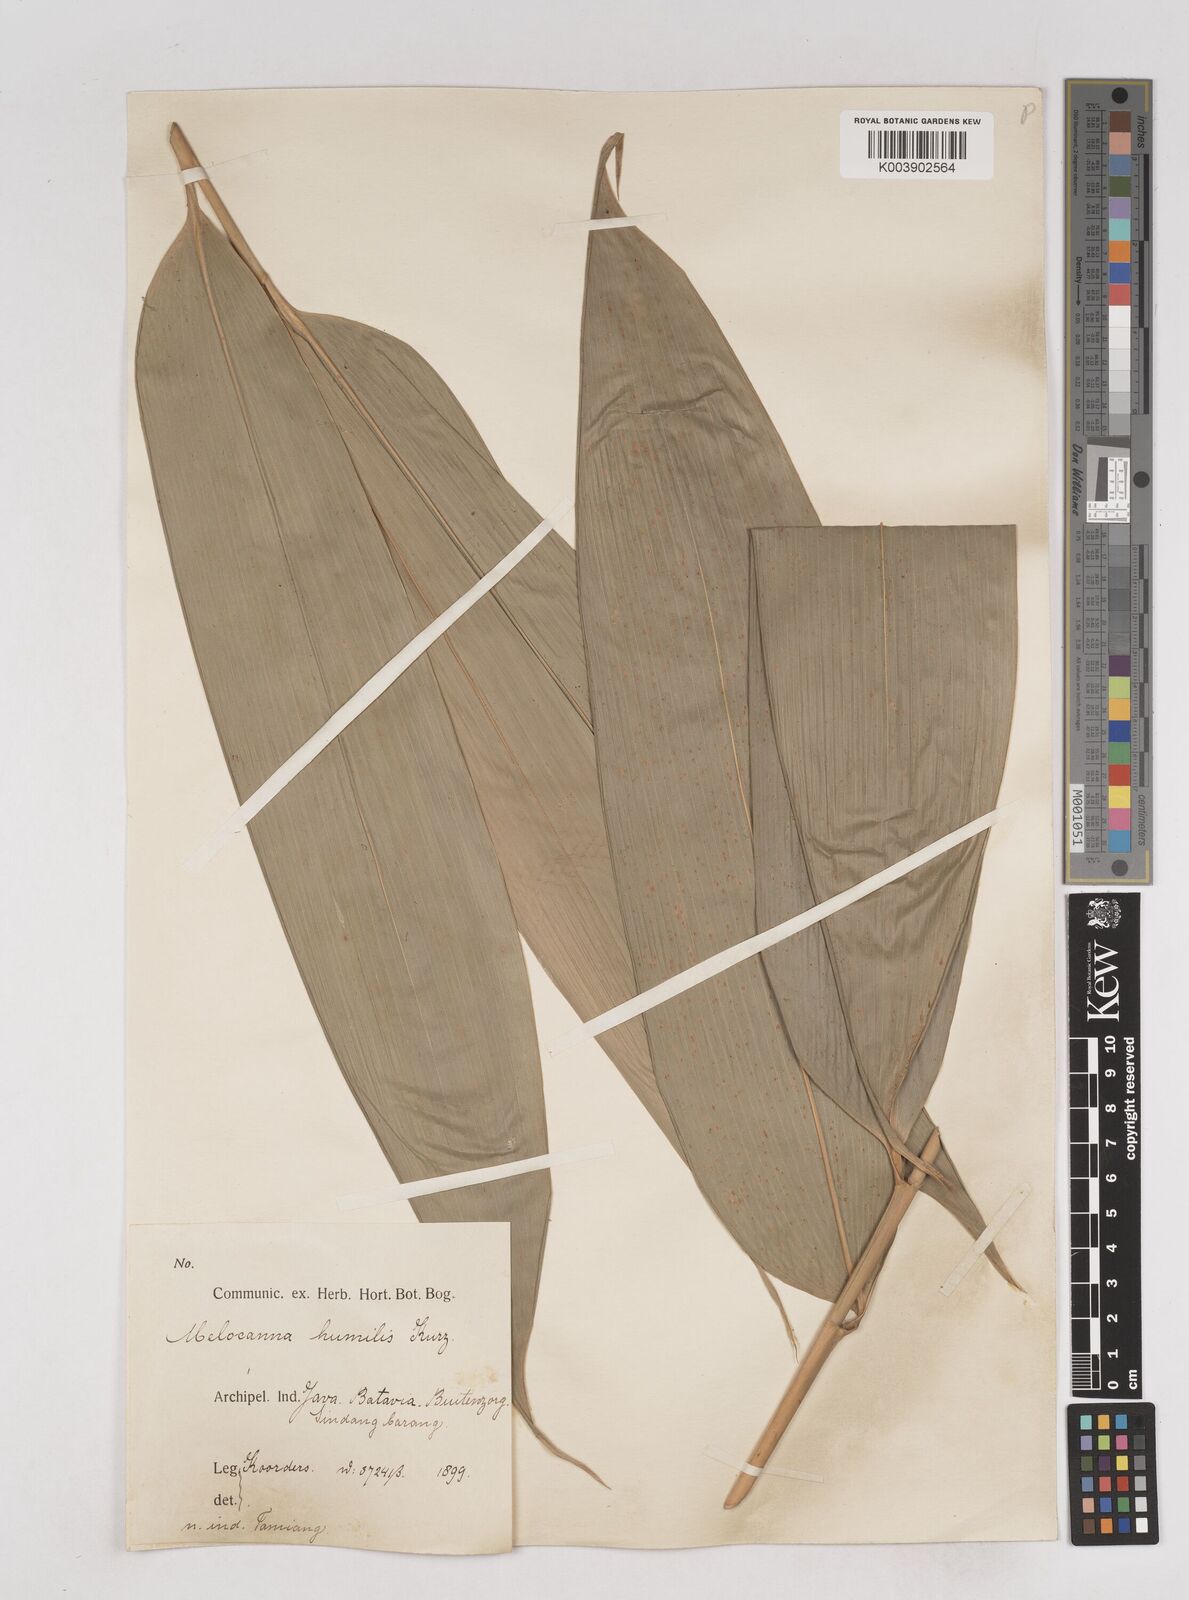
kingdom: Plantae
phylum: Tracheophyta
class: Liliopsida
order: Poales
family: Poaceae
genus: Schizostachyum
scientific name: Schizostachyum
